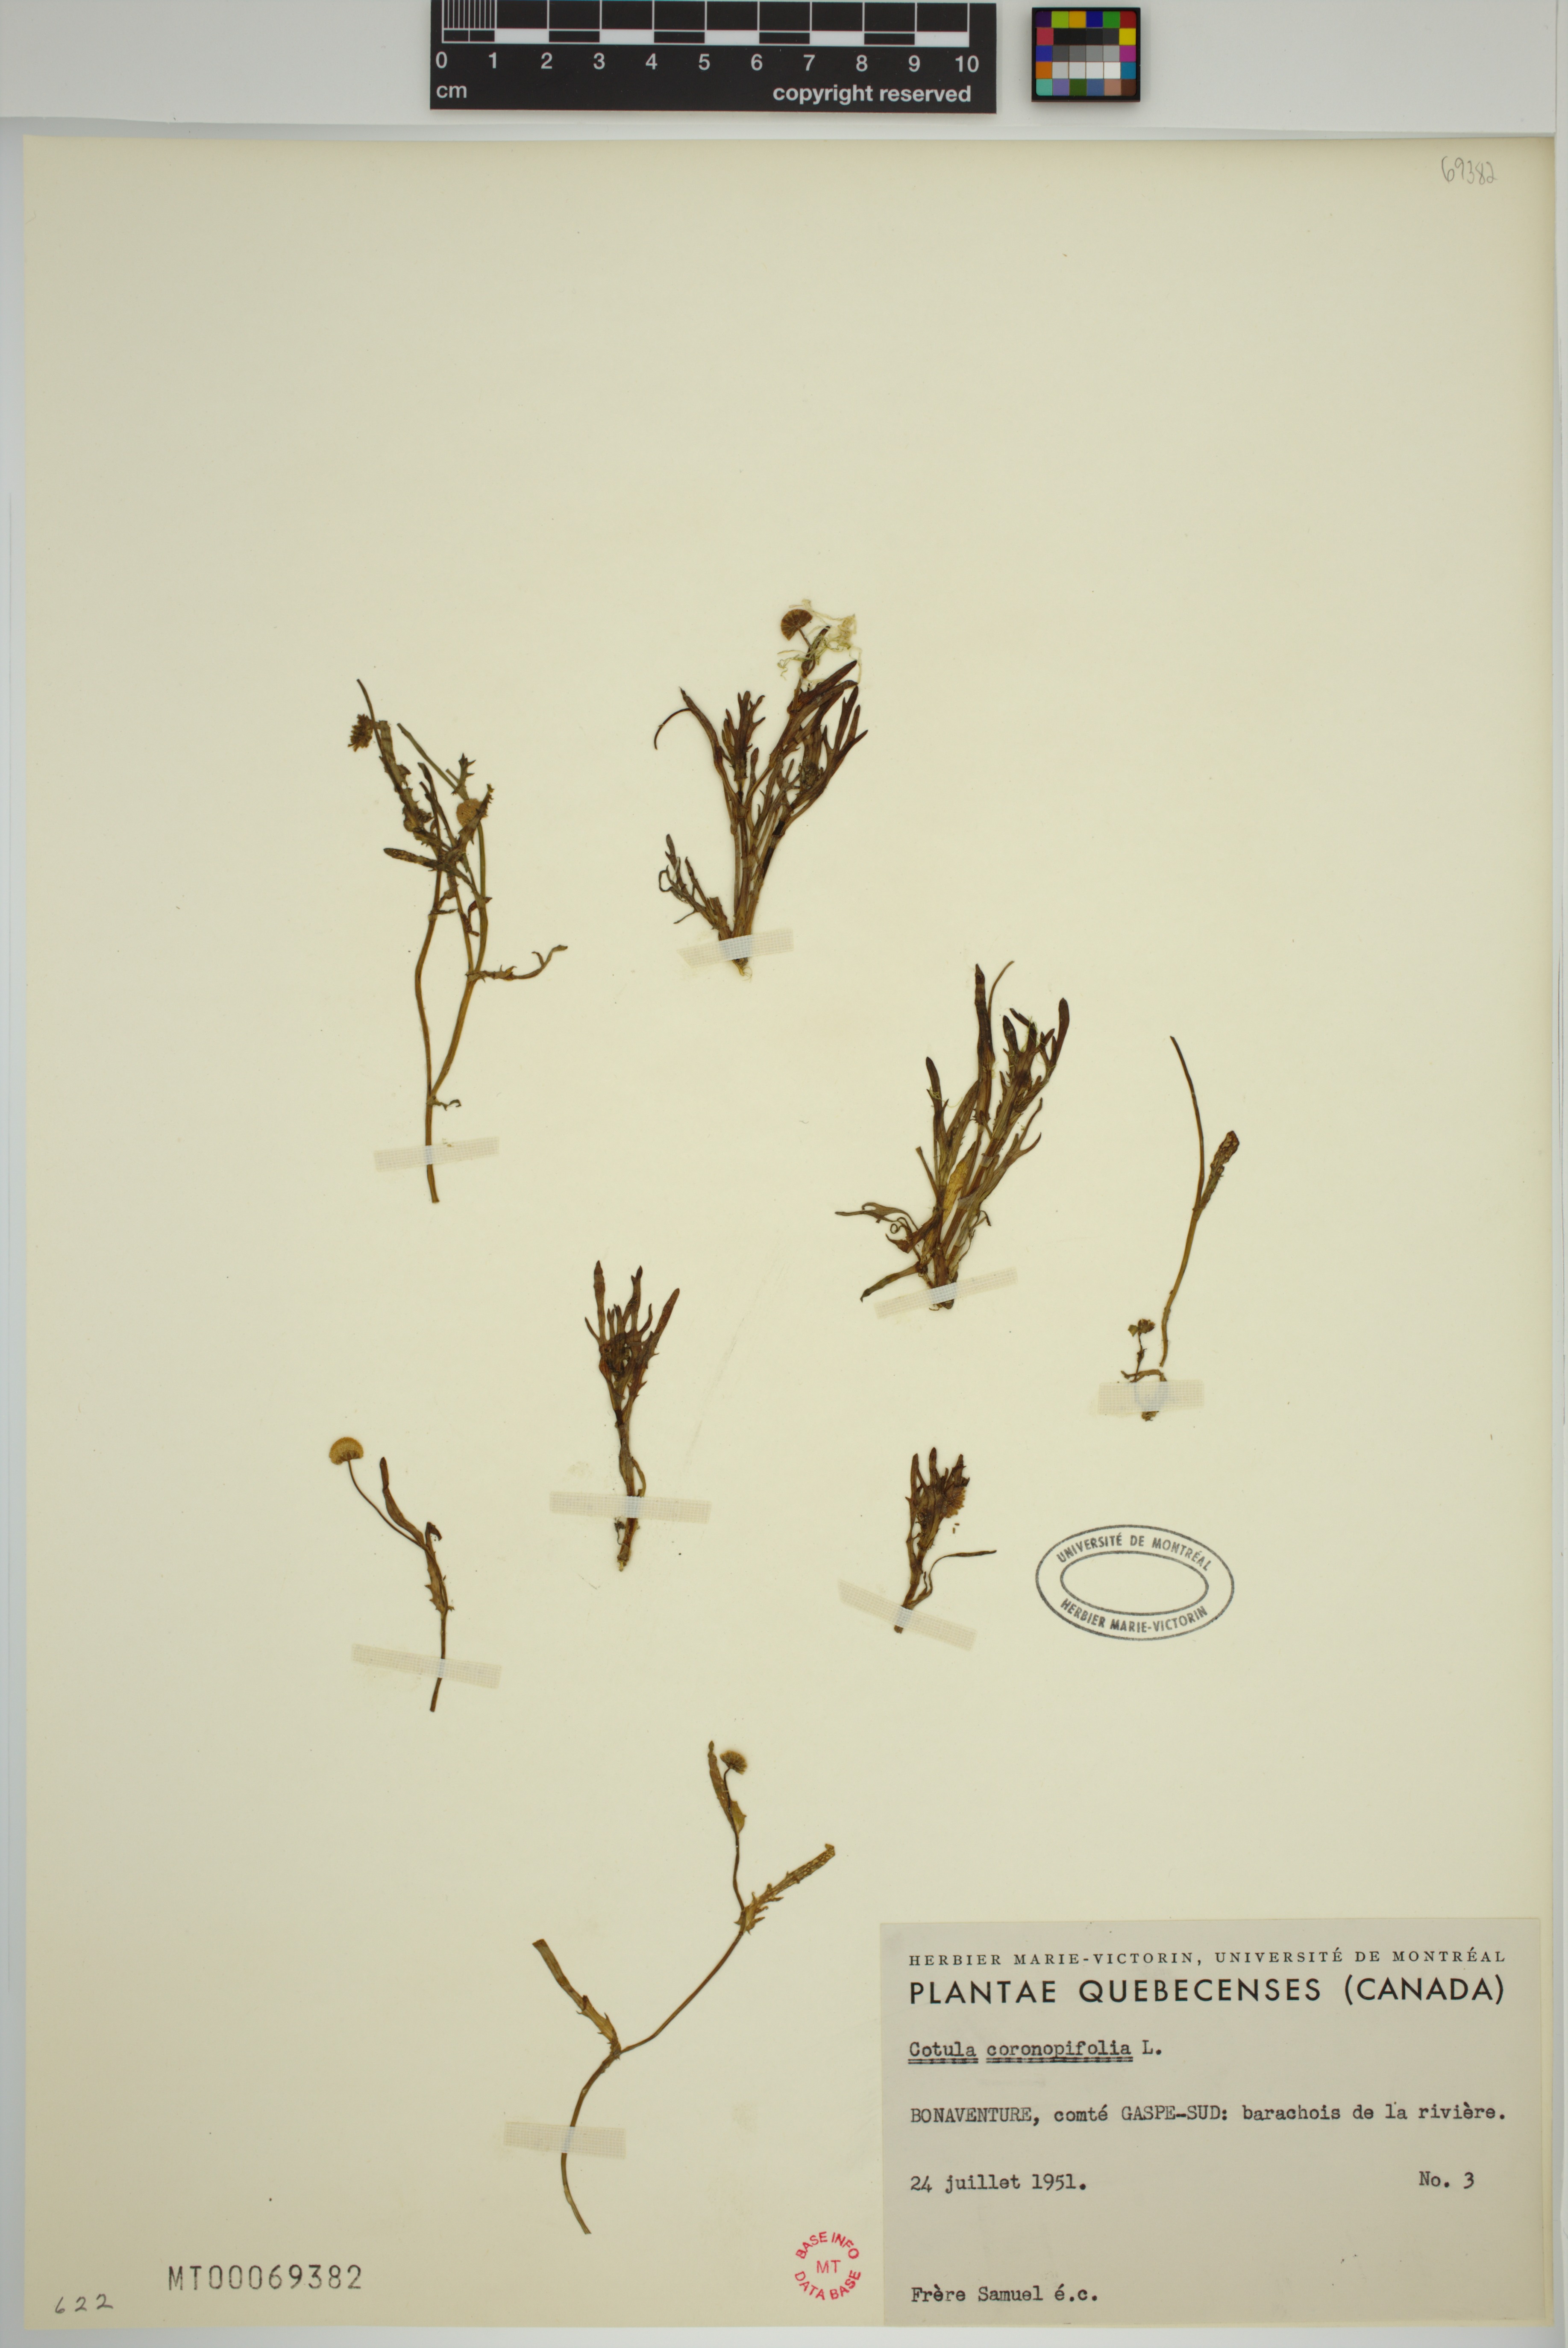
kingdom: Plantae
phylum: Tracheophyta
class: Magnoliopsida
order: Asterales
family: Asteraceae
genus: Cotula
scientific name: Cotula coronopifolia
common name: Buttonweed
